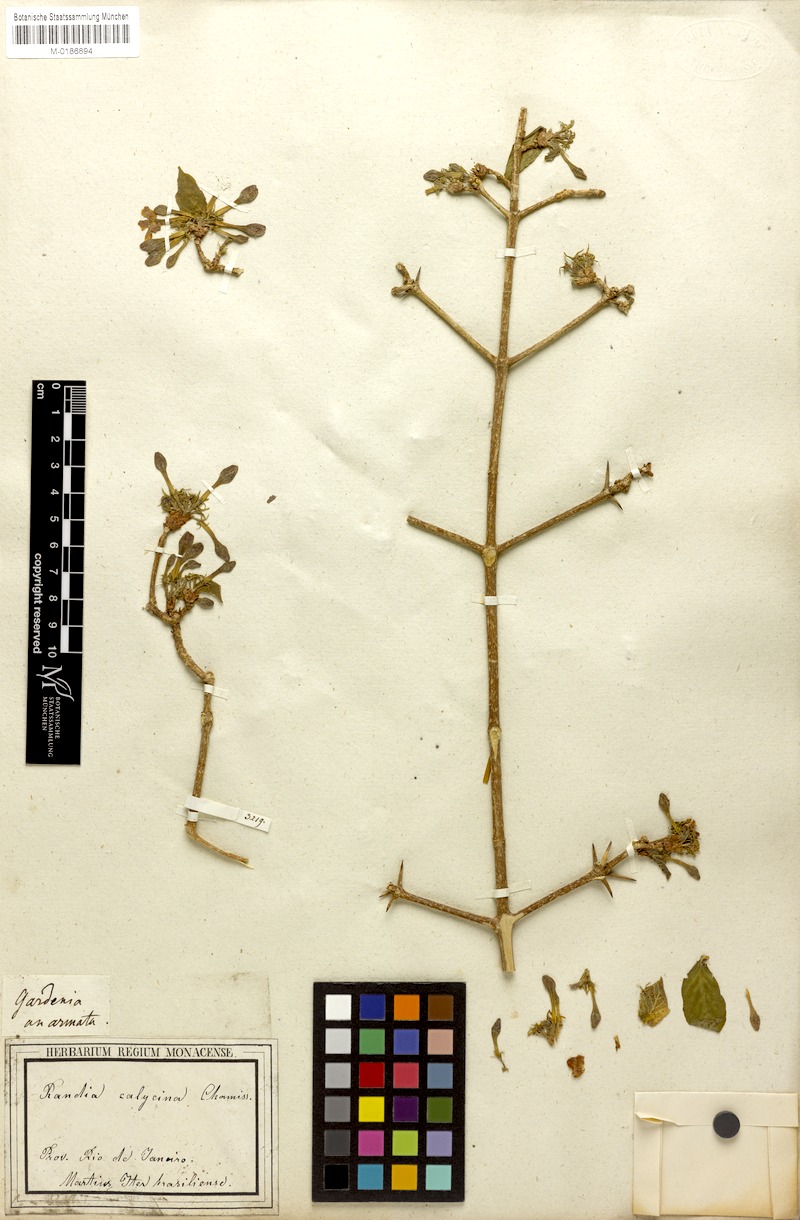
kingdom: Plantae
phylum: Tracheophyta
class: Magnoliopsida
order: Gentianales
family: Rubiaceae
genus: Randia
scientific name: Randia armata
